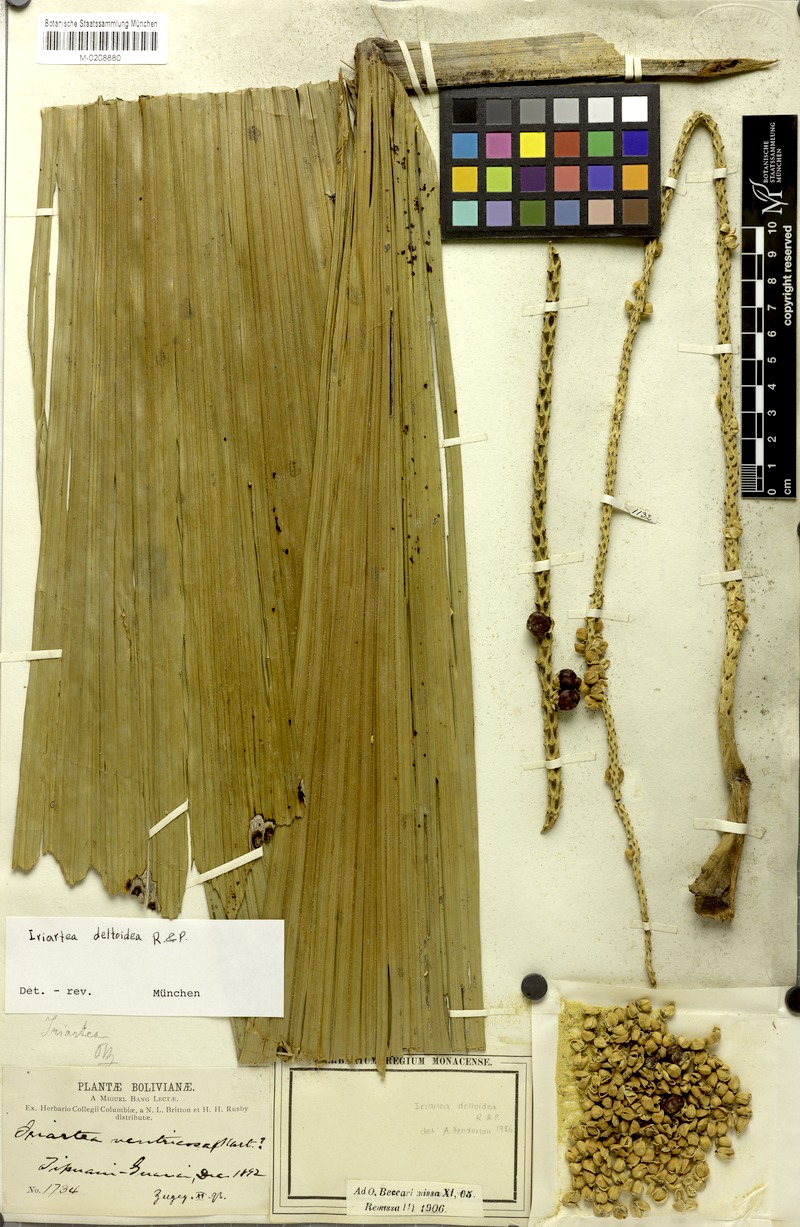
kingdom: Plantae
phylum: Tracheophyta
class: Liliopsida
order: Arecales
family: Arecaceae
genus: Iriartea
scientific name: Iriartea deltoidea
